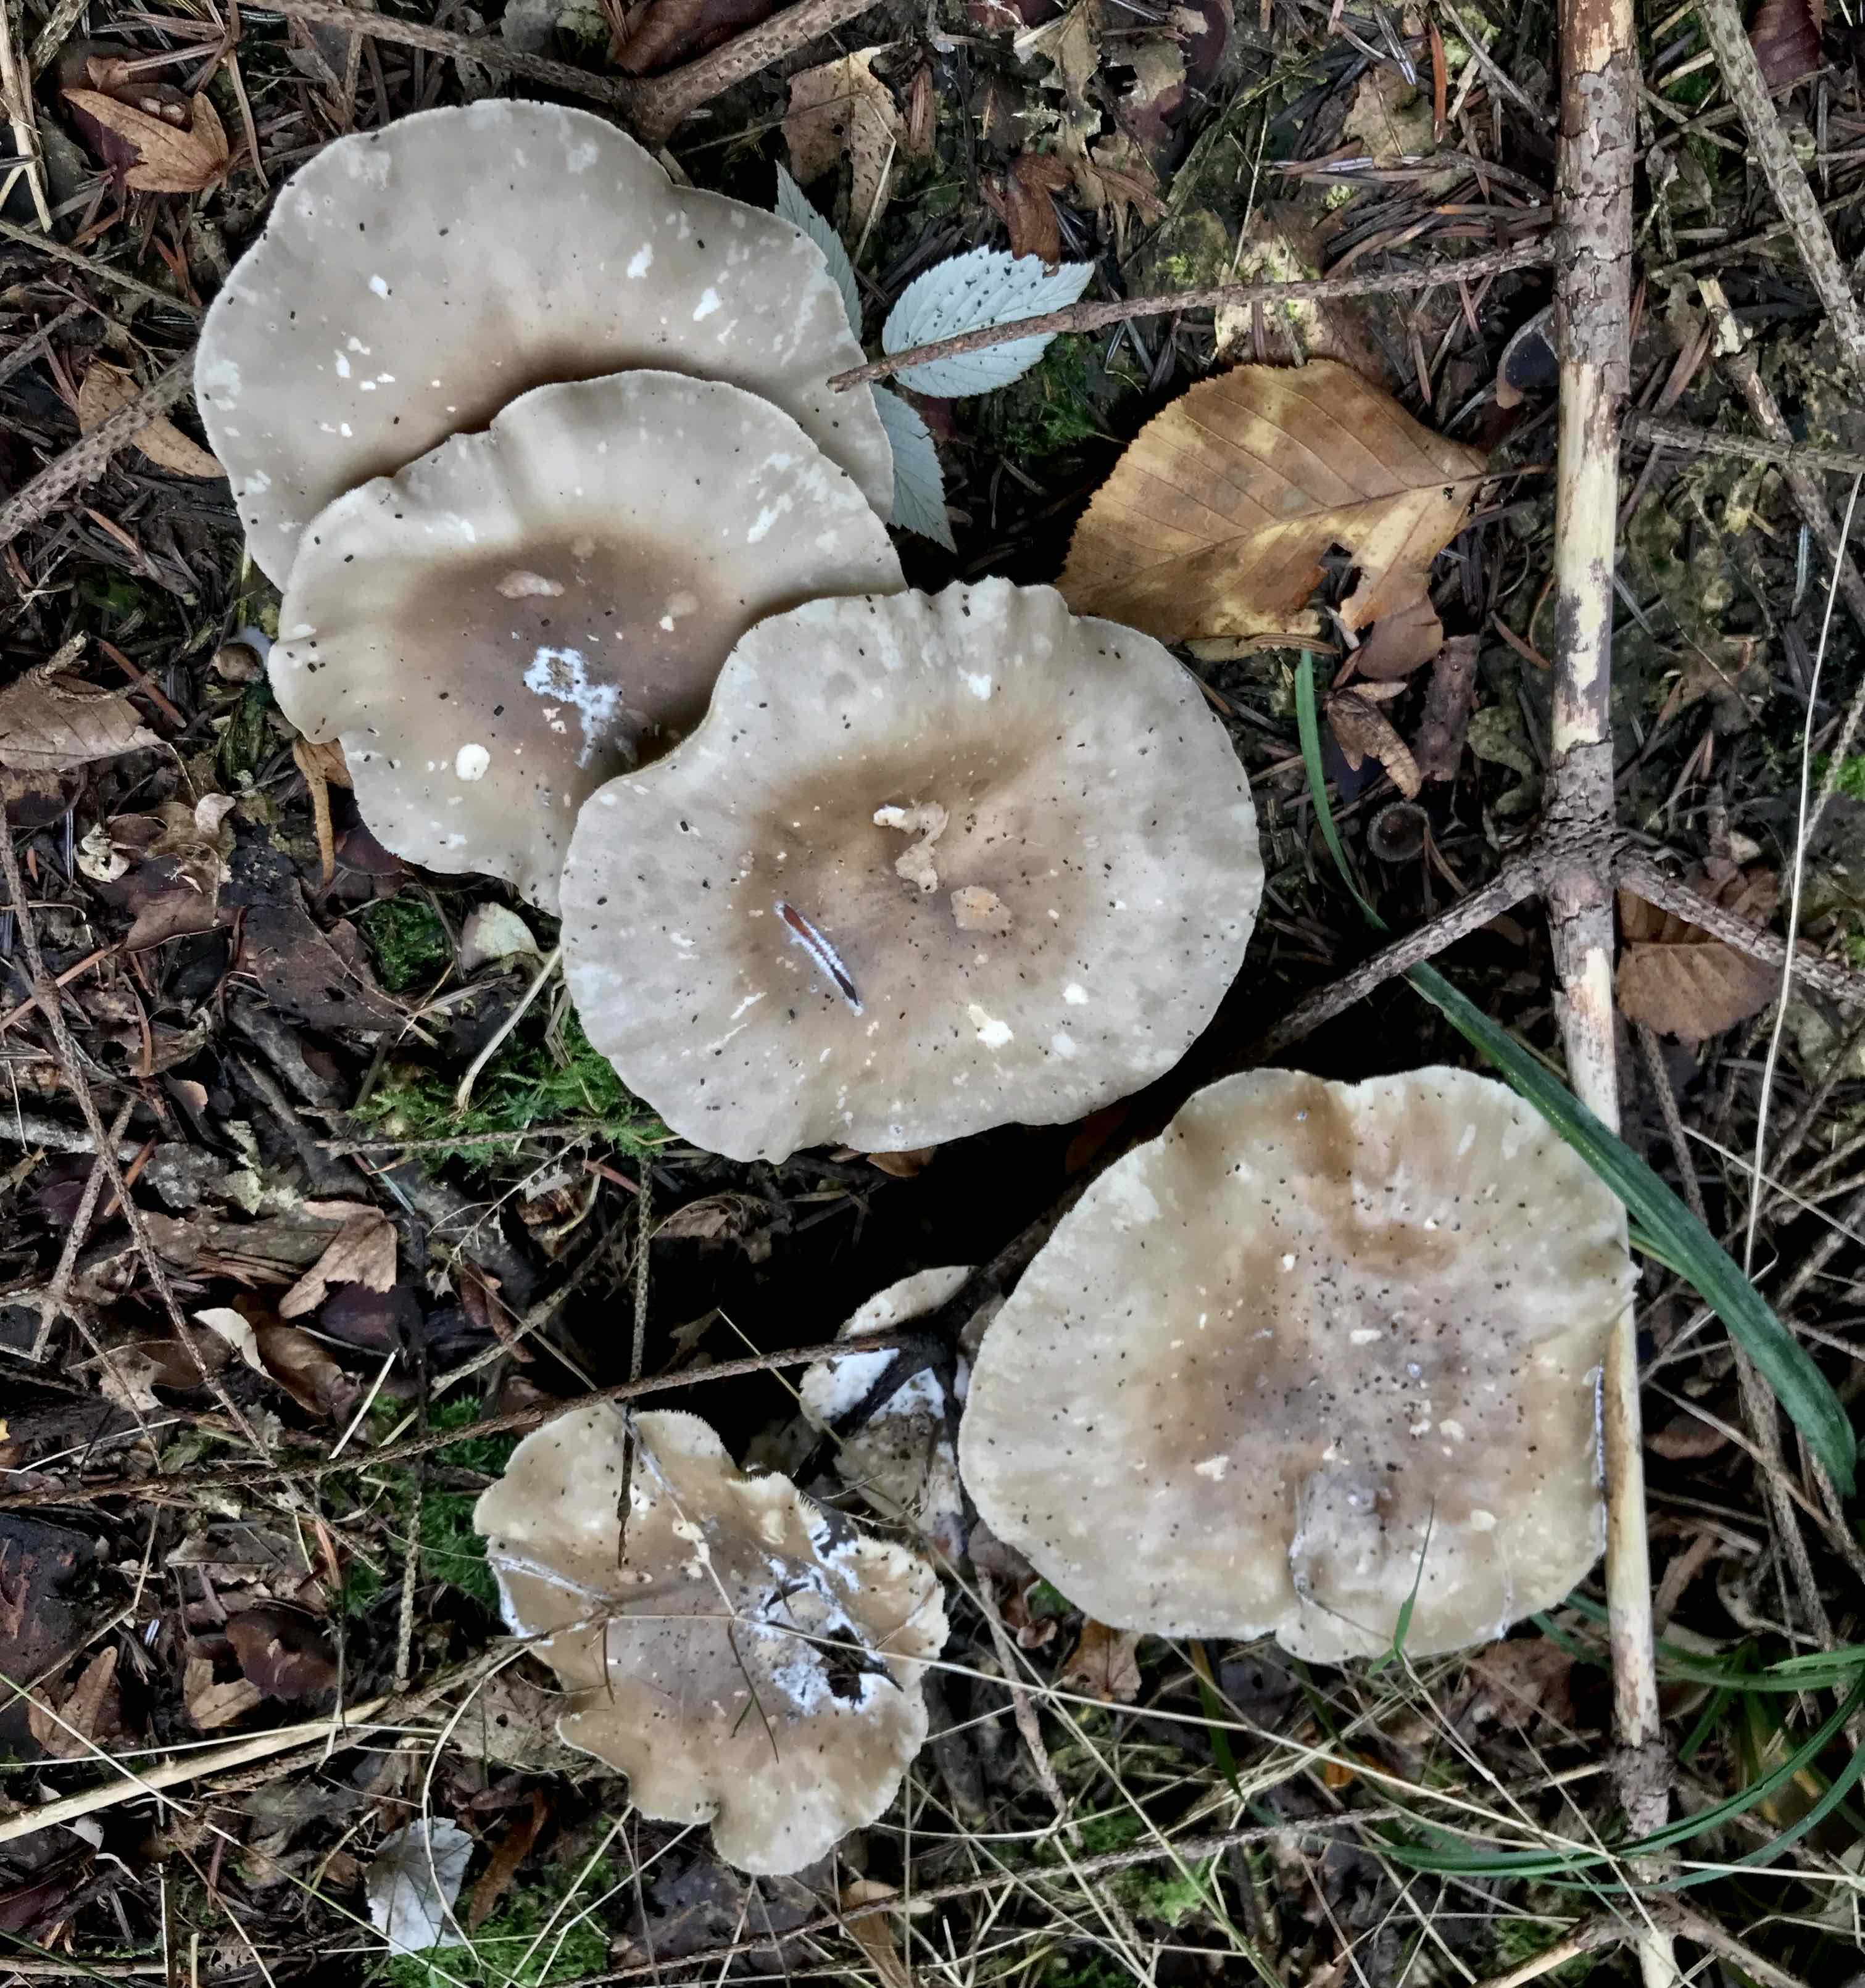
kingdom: Fungi
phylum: Basidiomycota
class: Agaricomycetes
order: Agaricales
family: Tricholomataceae
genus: Clitocybe
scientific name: Clitocybe nebularis
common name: tåge-tragthat
